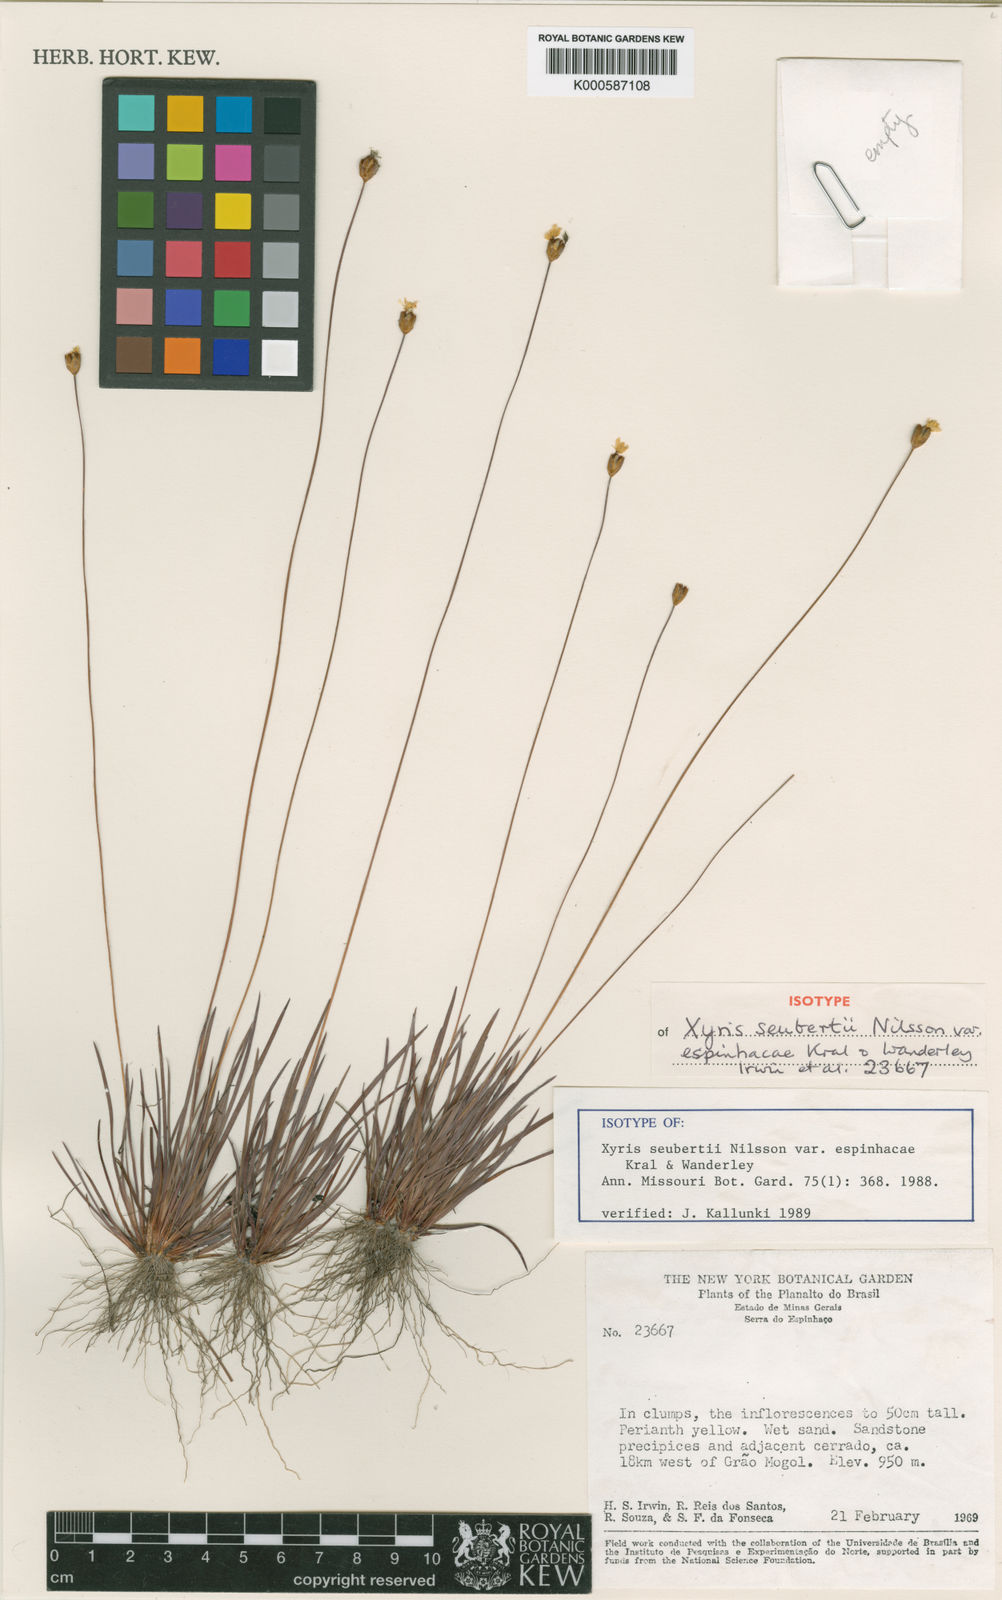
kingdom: Plantae
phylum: Tracheophyta
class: Liliopsida
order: Poales
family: Xyridaceae
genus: Xyris
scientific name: Xyris seubertii
